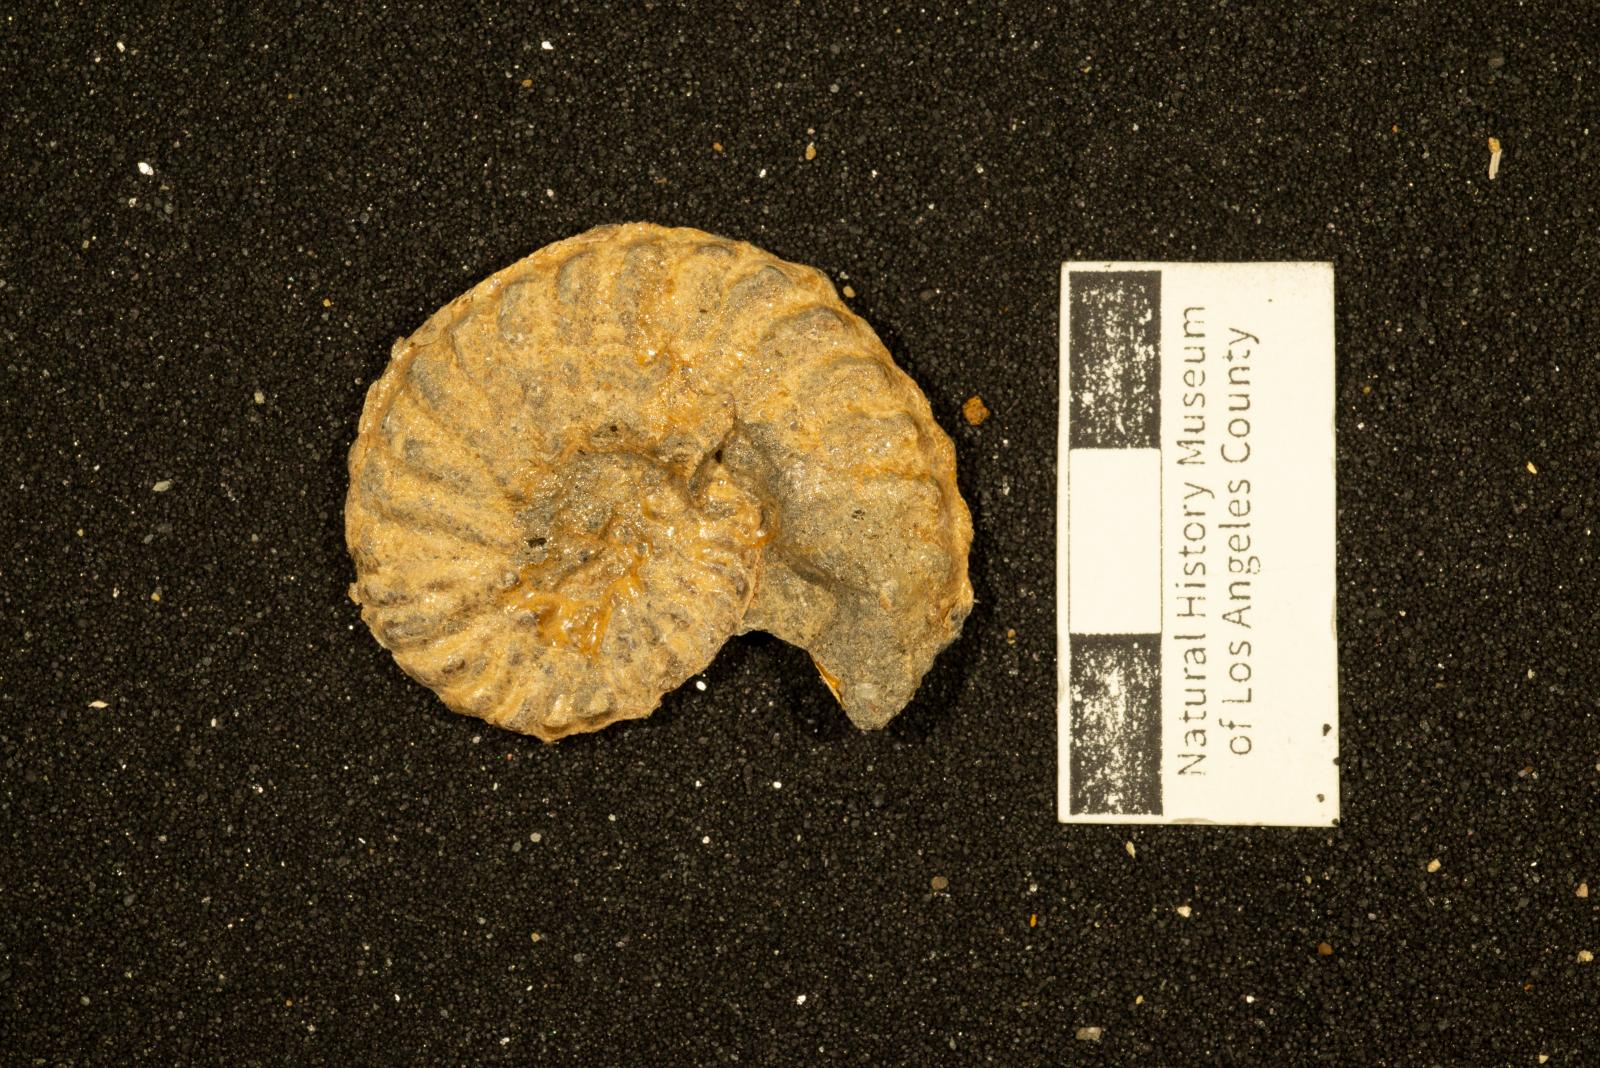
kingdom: Animalia
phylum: Mollusca
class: Cephalopoda
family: Collignoniceratidae
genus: Subprionocyclus
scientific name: Subprionocyclus
